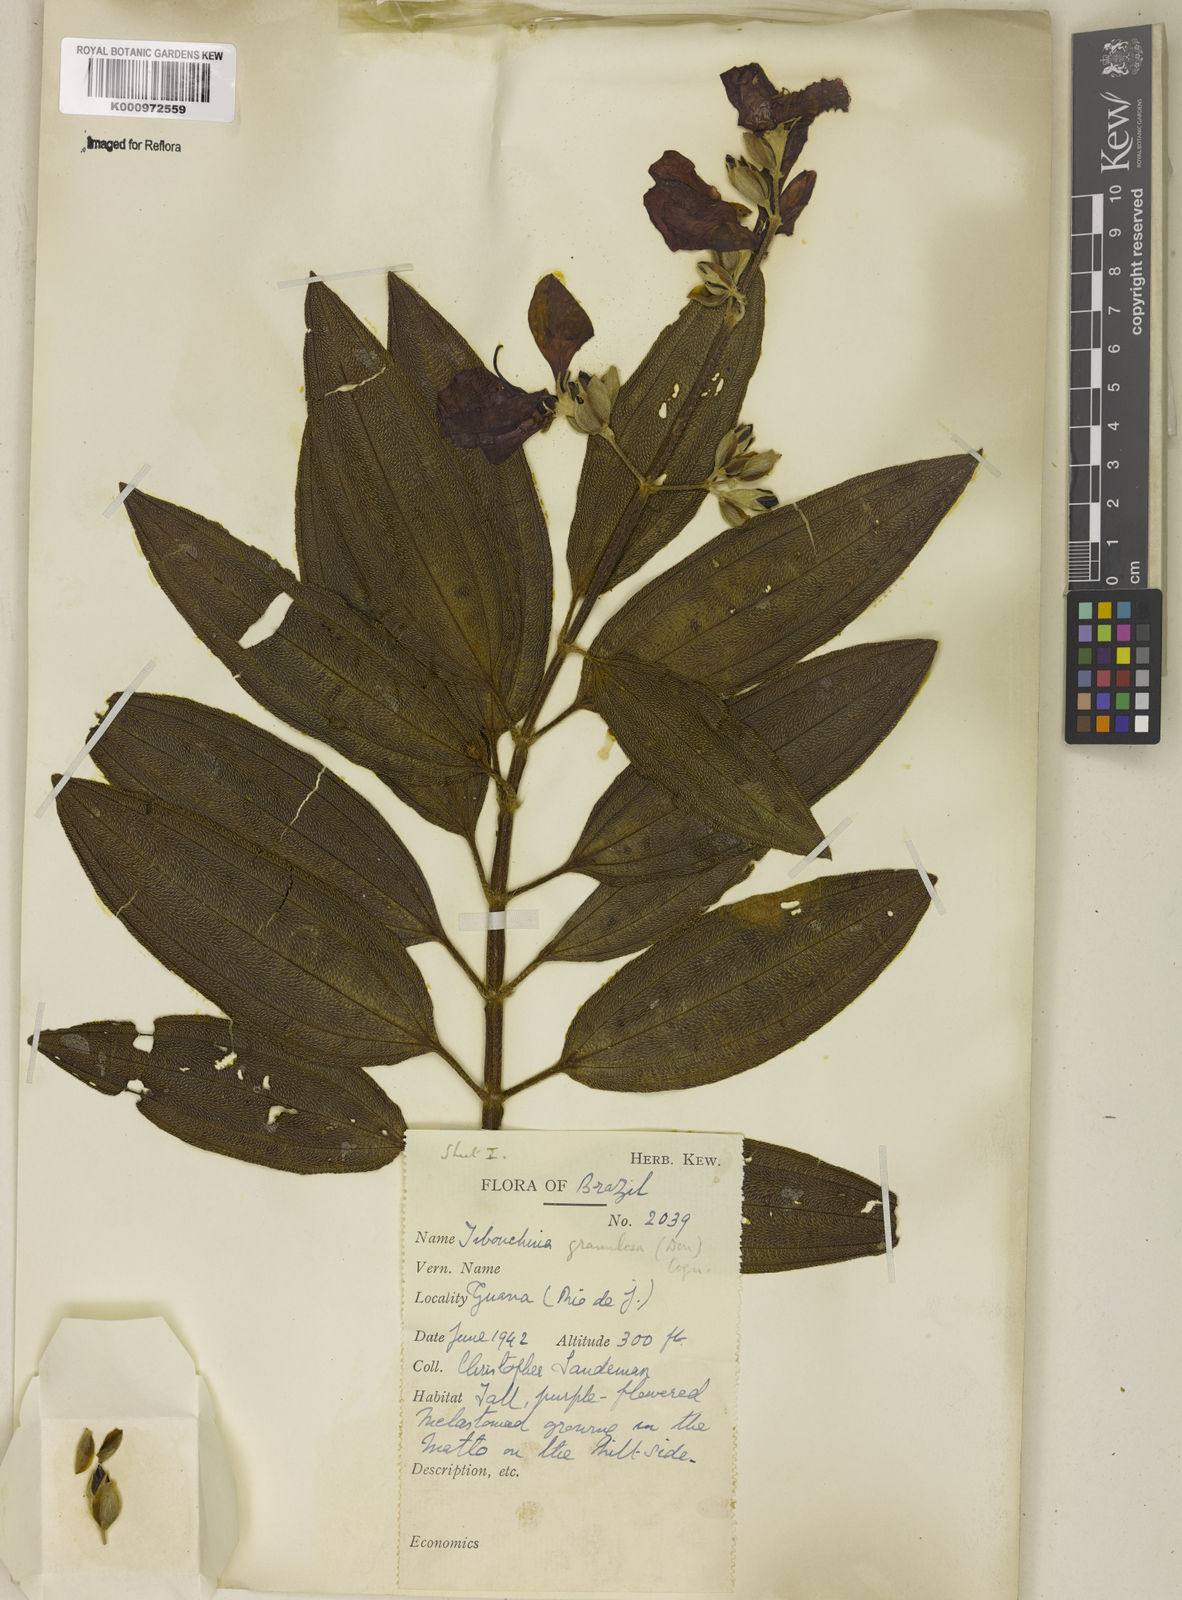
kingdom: Plantae
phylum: Tracheophyta
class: Magnoliopsida
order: Myrtales
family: Melastomataceae
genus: Pleroma
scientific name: Pleroma granulosum
